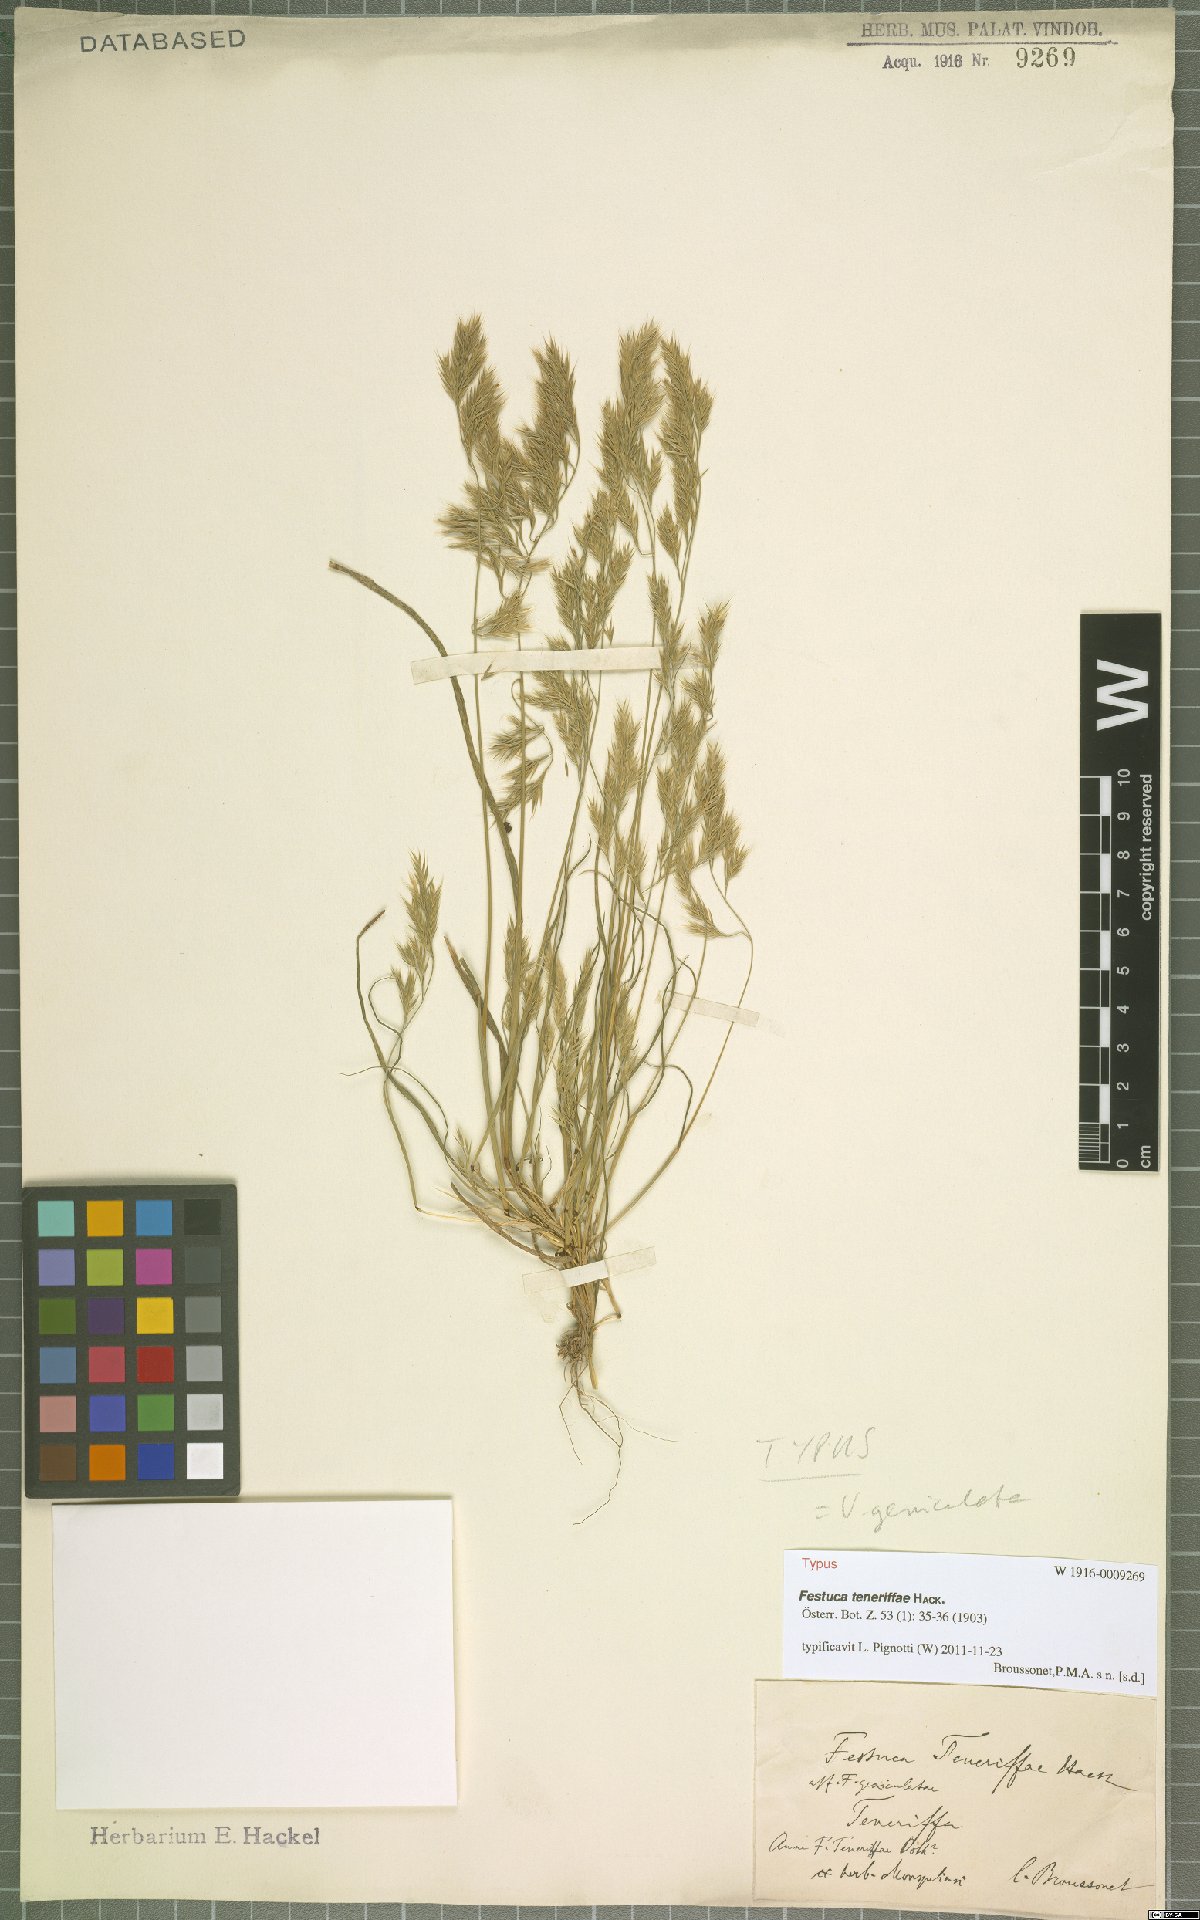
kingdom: Plantae
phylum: Tracheophyta
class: Liliopsida
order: Poales
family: Poaceae
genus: Festuca
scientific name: Festuca agustini
